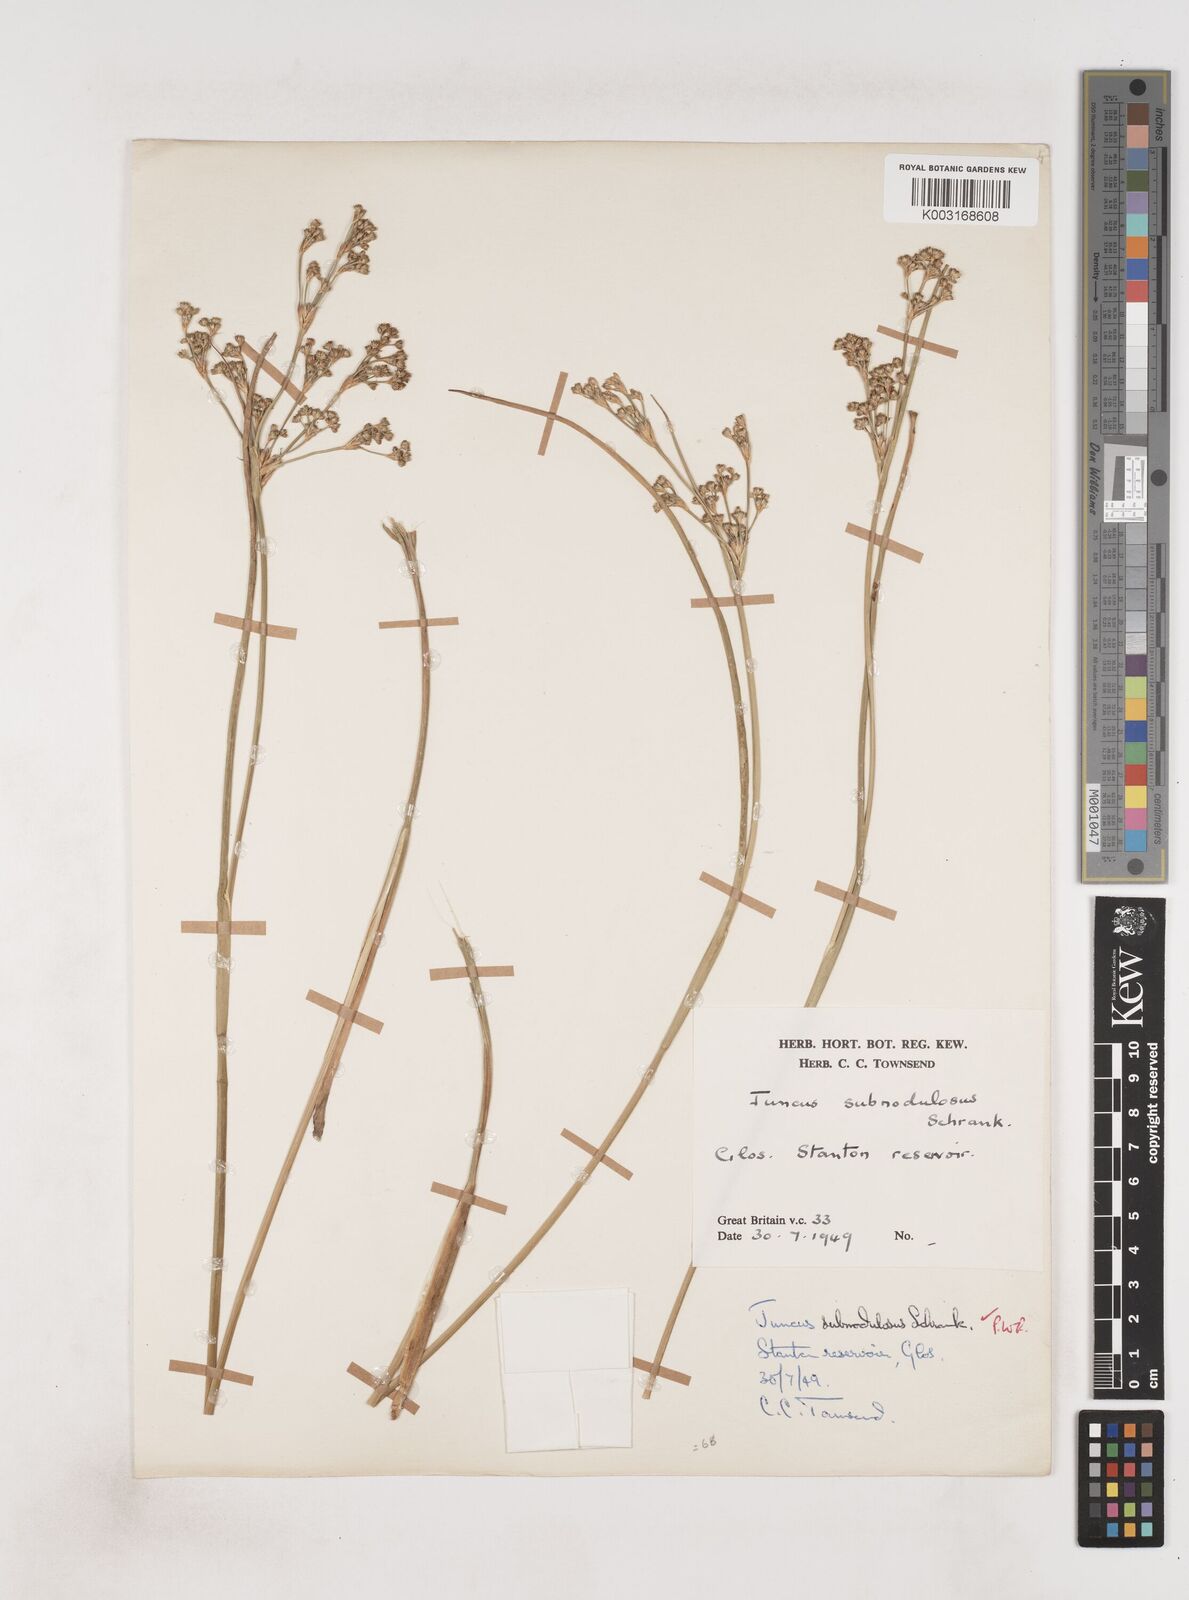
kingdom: Plantae
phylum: Tracheophyta
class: Liliopsida
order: Poales
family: Juncaceae
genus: Juncus
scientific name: Juncus subnodulosus
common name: Blunt-flowered rush
